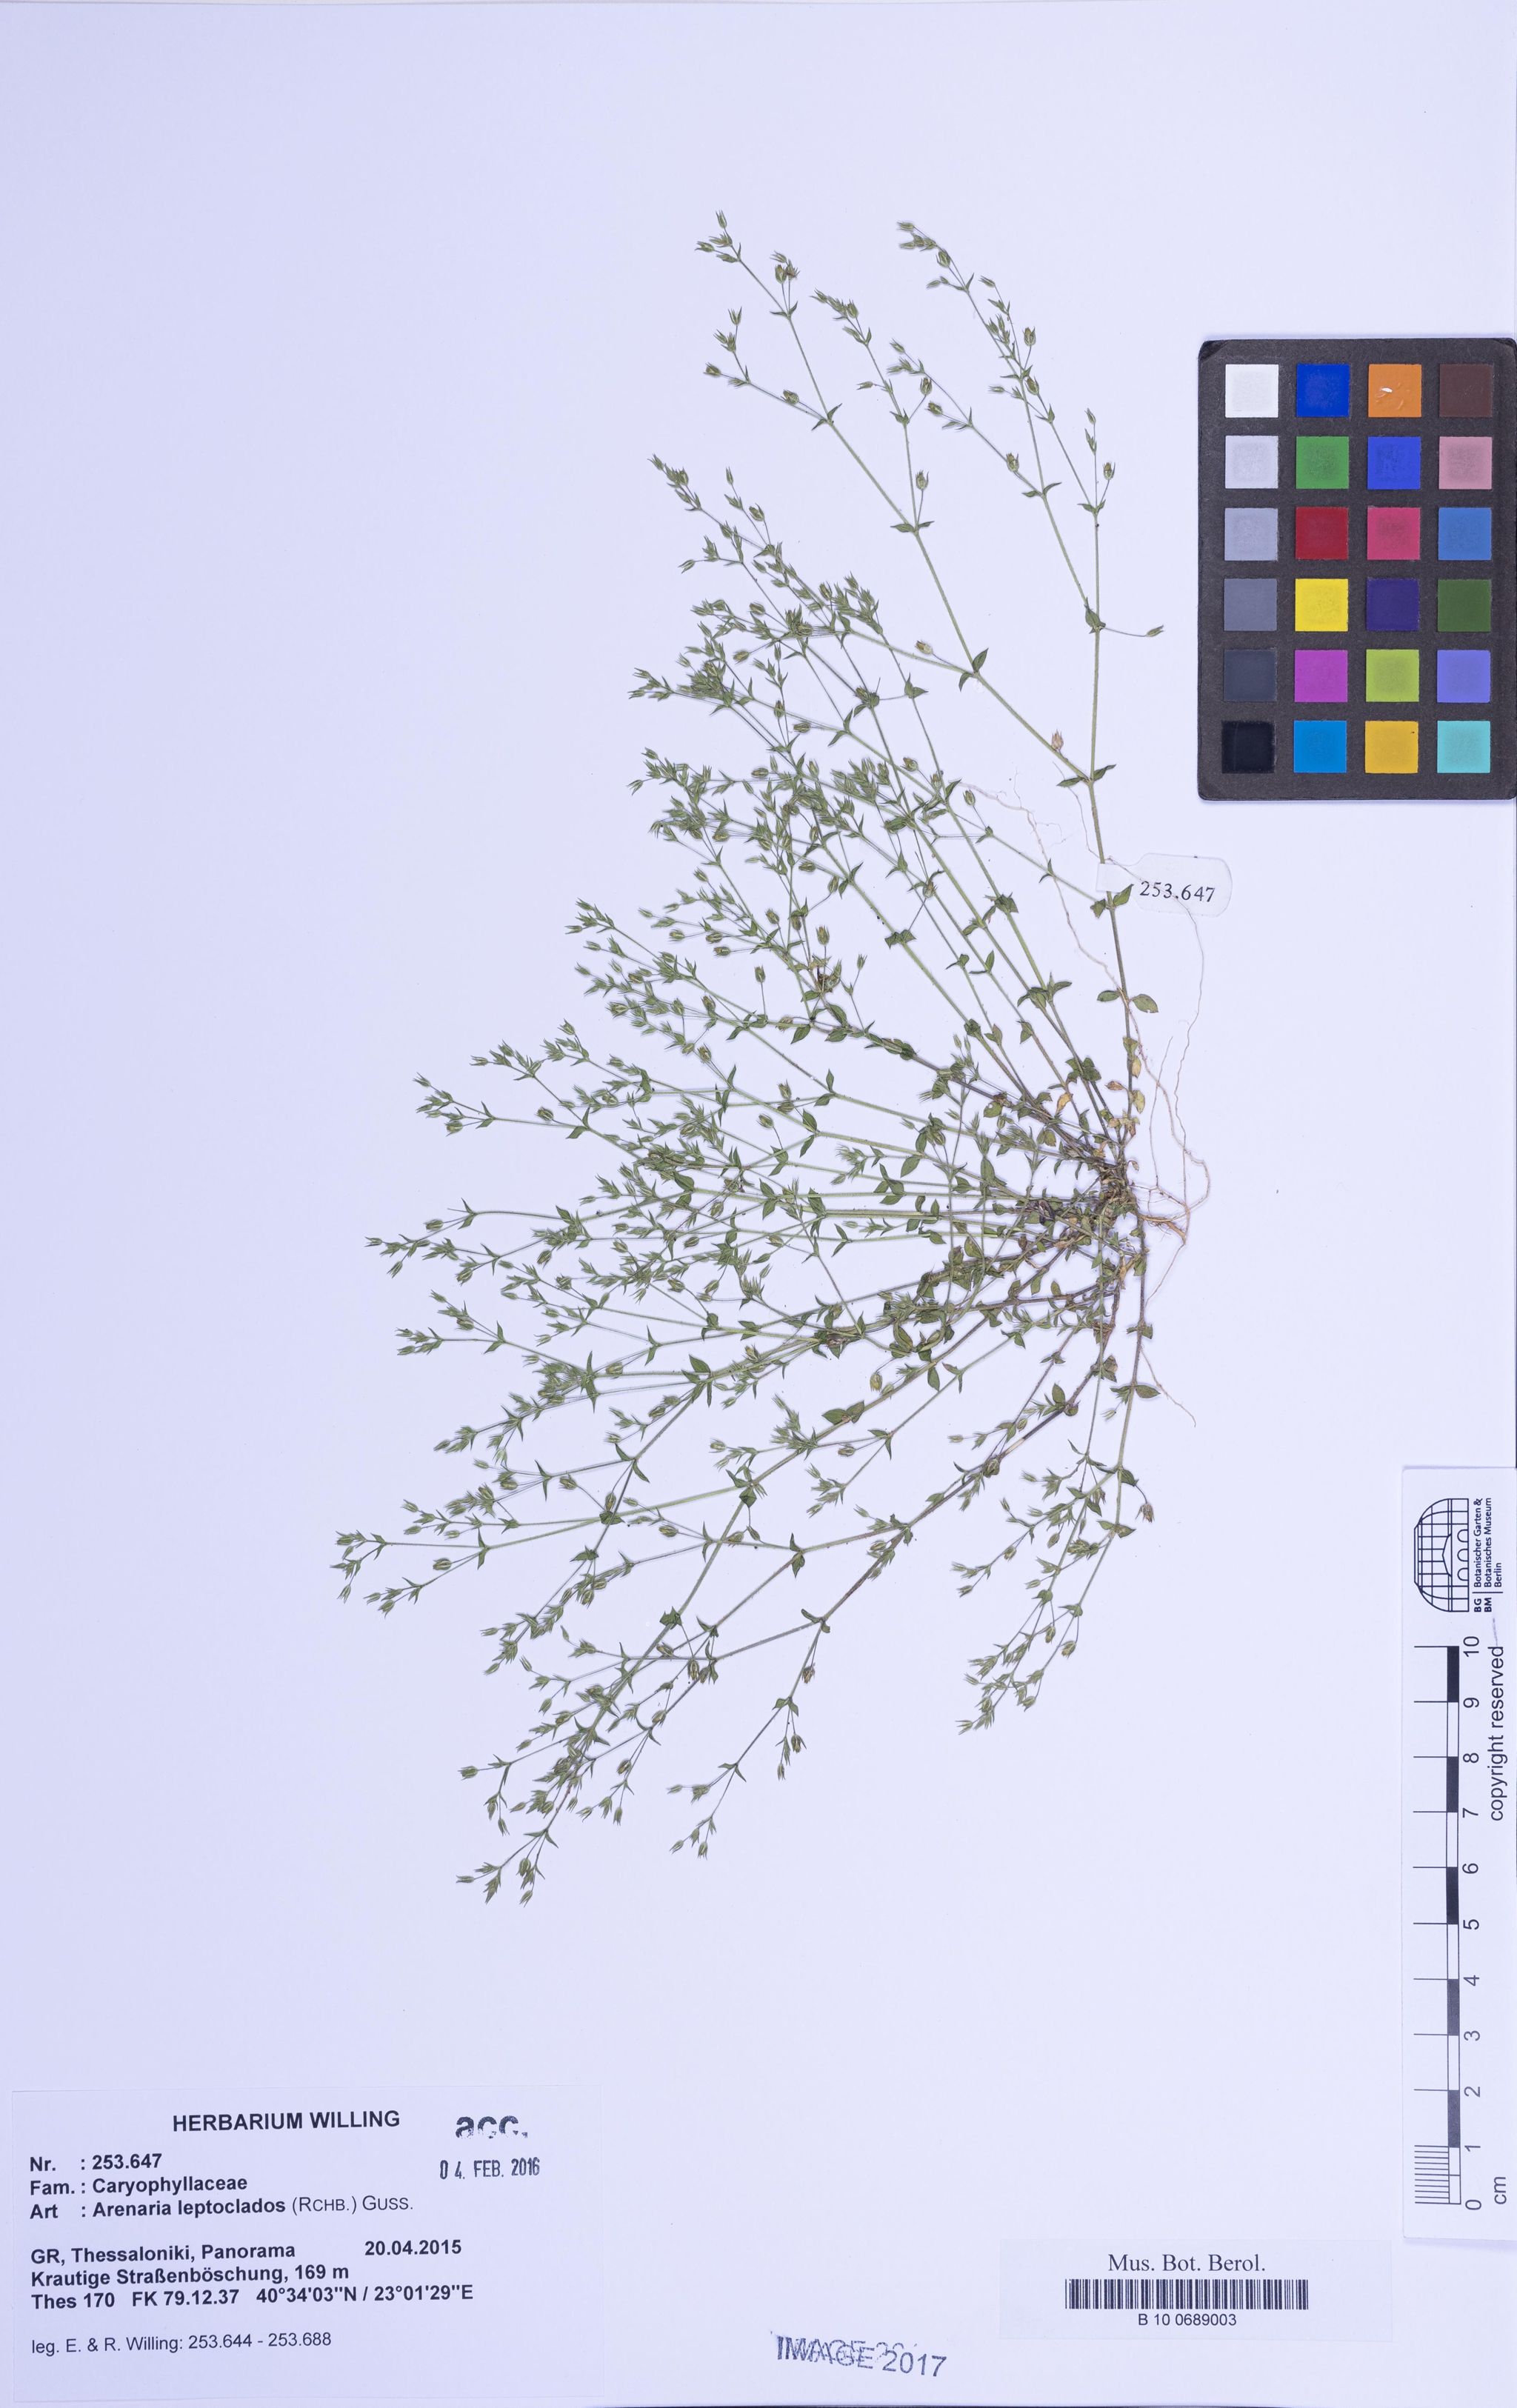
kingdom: Plantae
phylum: Tracheophyta
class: Magnoliopsida
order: Caryophyllales
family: Caryophyllaceae
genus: Arenaria
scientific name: Arenaria leptoclados
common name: Thyme-leaved sandwort
